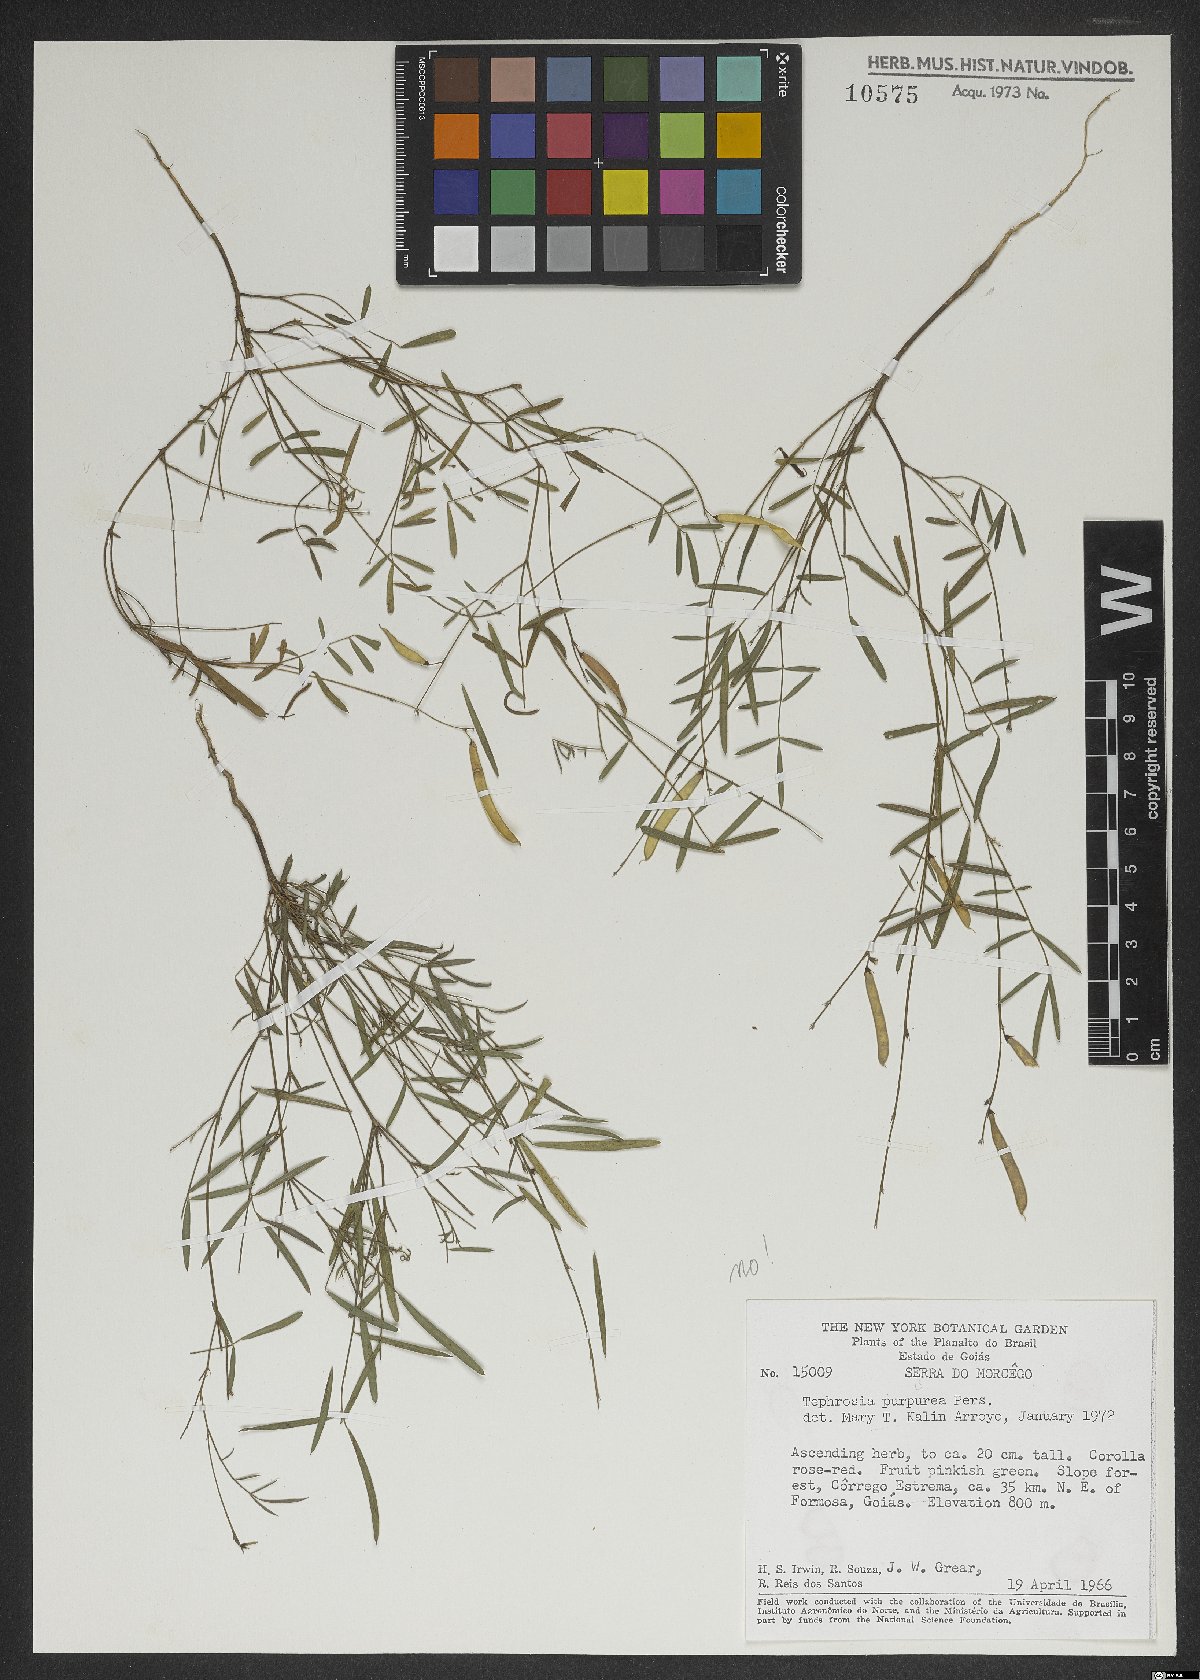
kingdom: Plantae
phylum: Tracheophyta
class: Magnoliopsida
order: Fabales
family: Fabaceae
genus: Tephrosia
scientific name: Tephrosia purpurea
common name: Fishpoison
